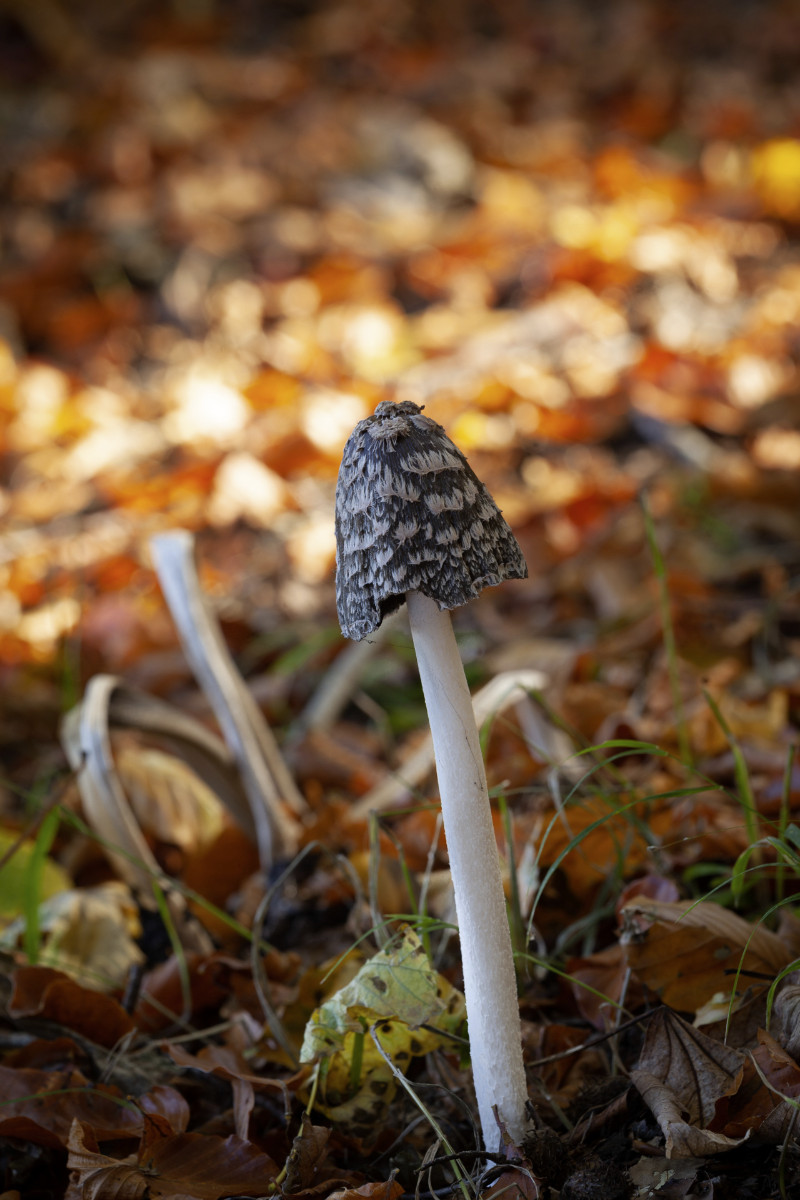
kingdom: Fungi
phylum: Basidiomycota
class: Agaricomycetes
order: Agaricales
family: Psathyrellaceae
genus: Coprinopsis
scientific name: Coprinopsis picacea
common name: skade-blækhat
